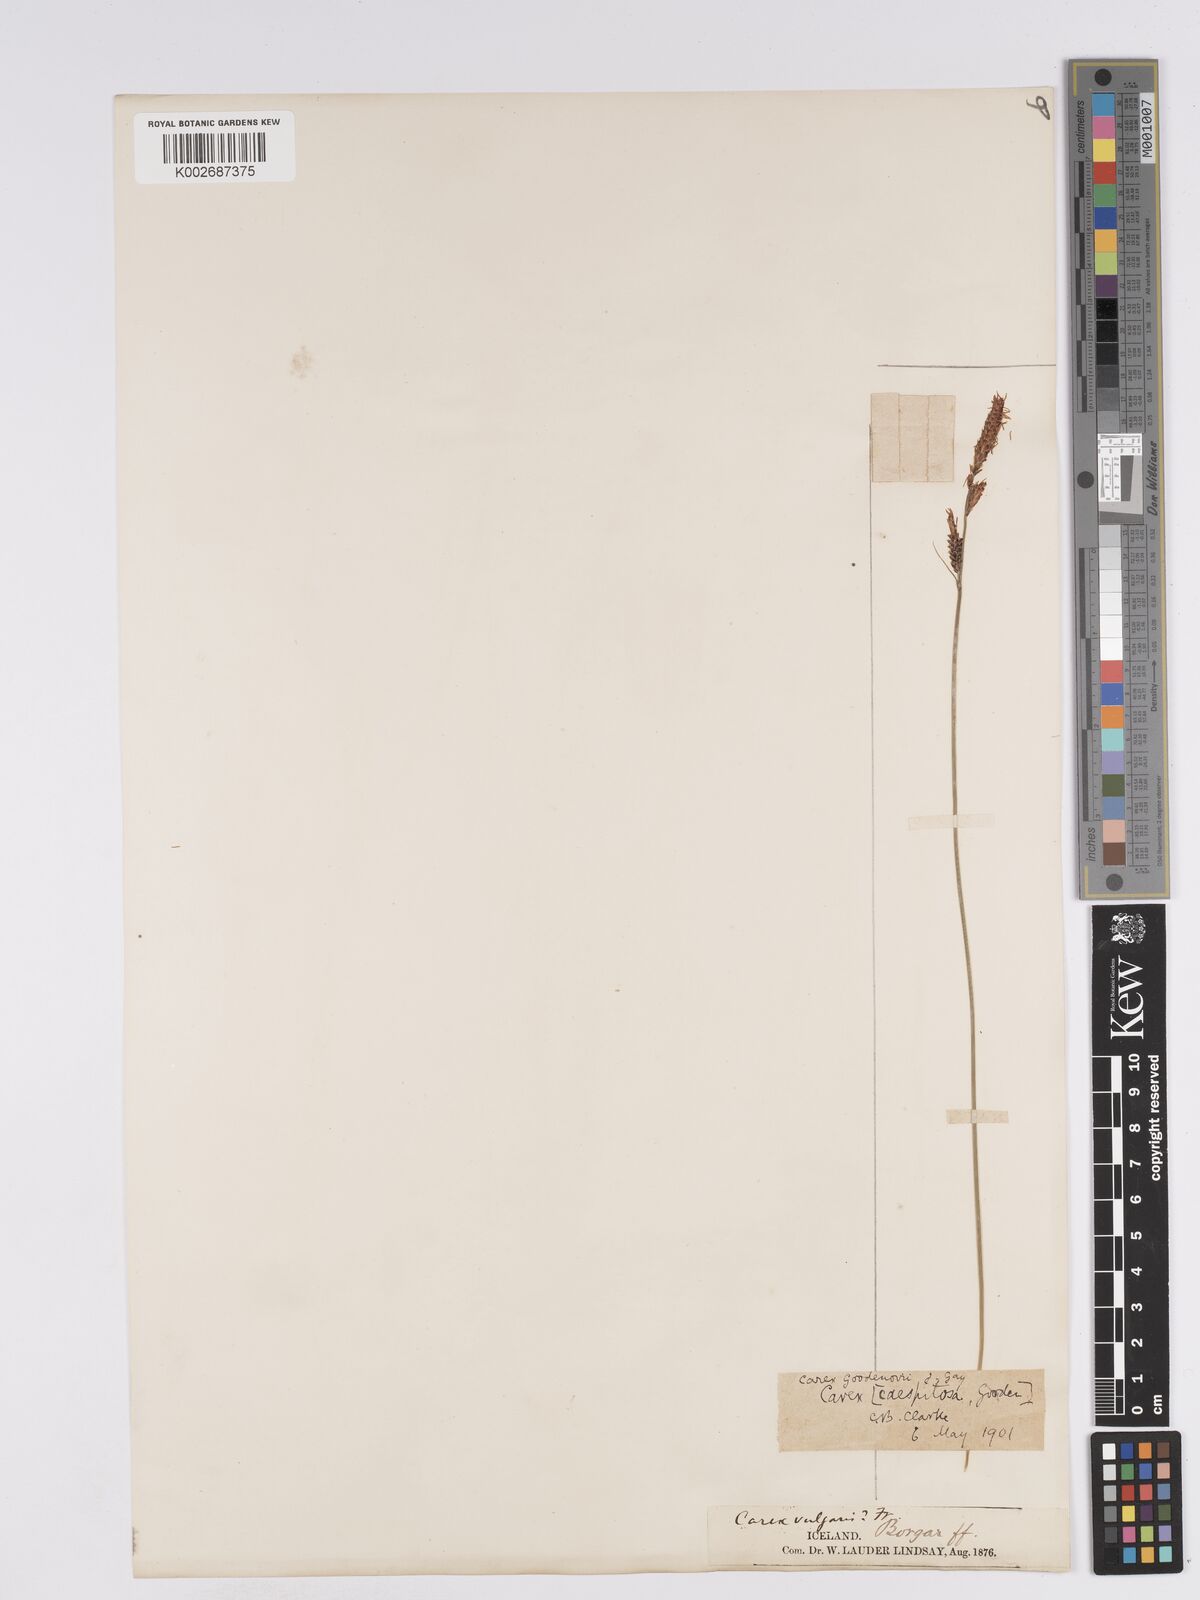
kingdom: Plantae
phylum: Tracheophyta
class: Liliopsida
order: Poales
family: Cyperaceae
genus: Carex
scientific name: Carex nigra
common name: Common sedge
